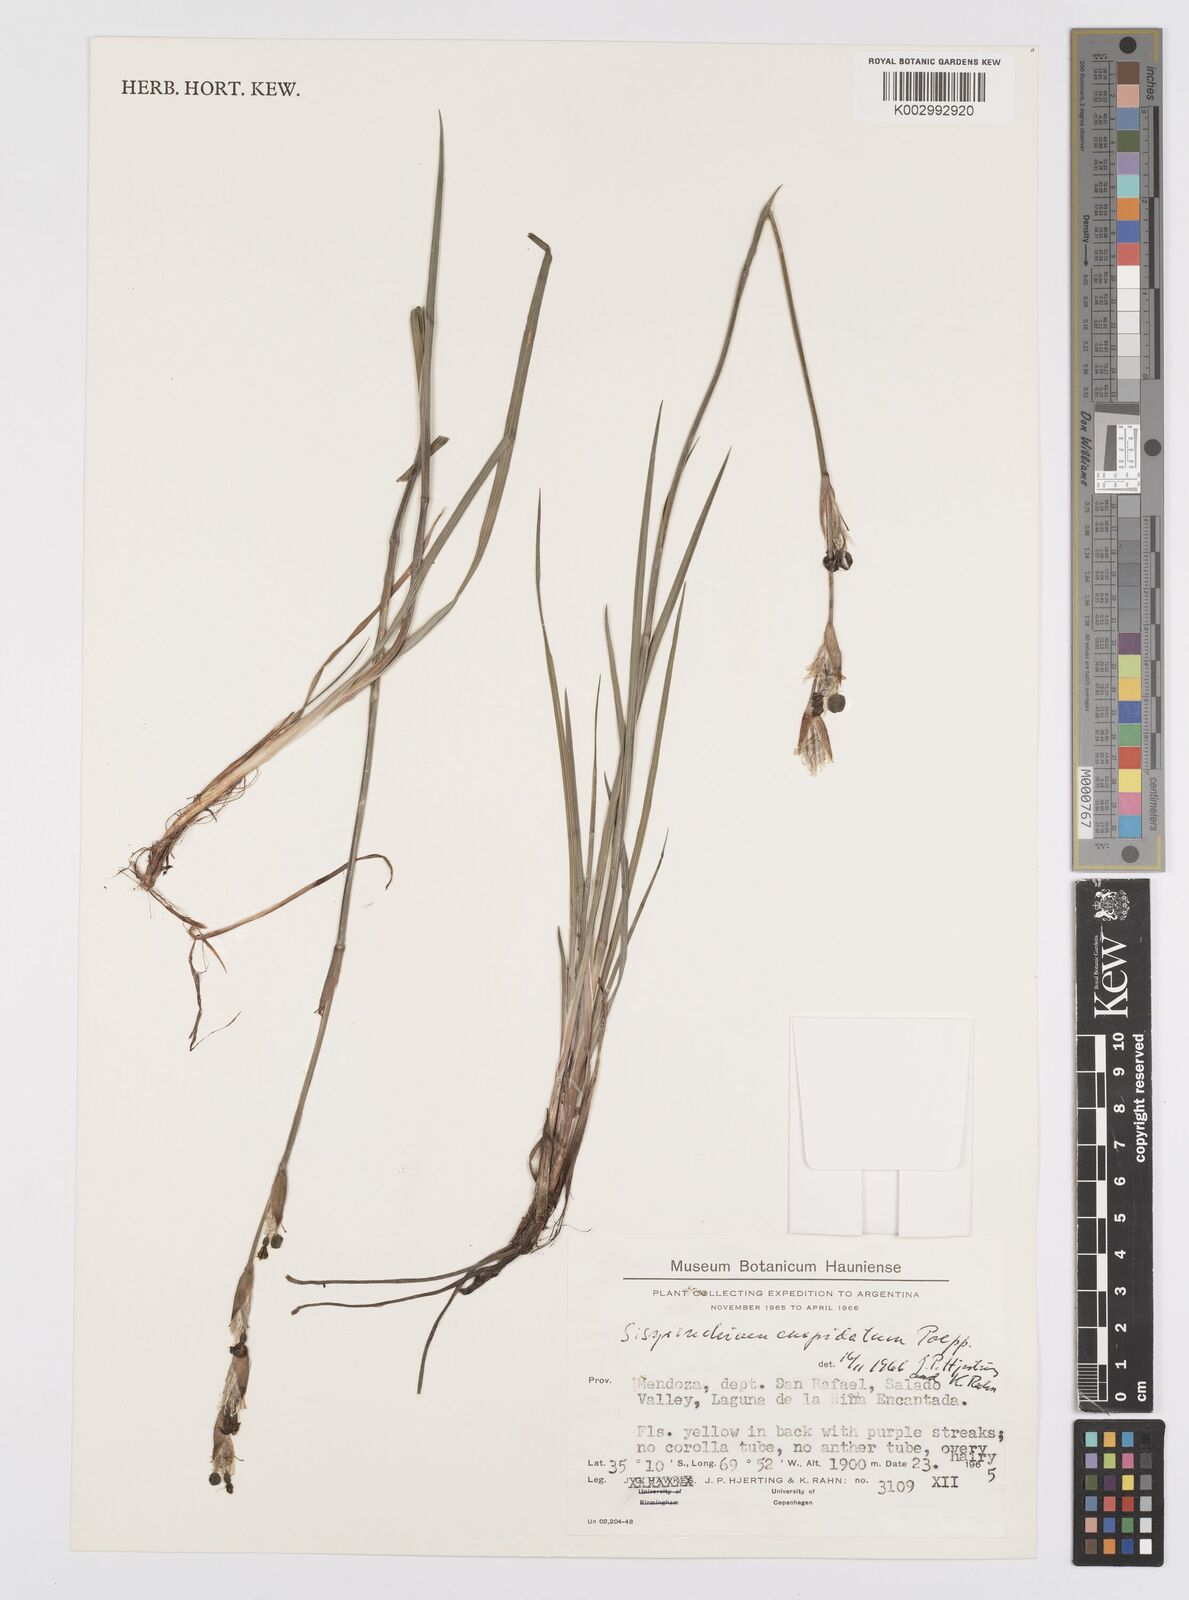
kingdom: Plantae
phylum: Tracheophyta
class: Liliopsida
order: Asparagales
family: Iridaceae
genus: Sisyrinchium
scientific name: Sisyrinchium cuspidatum
